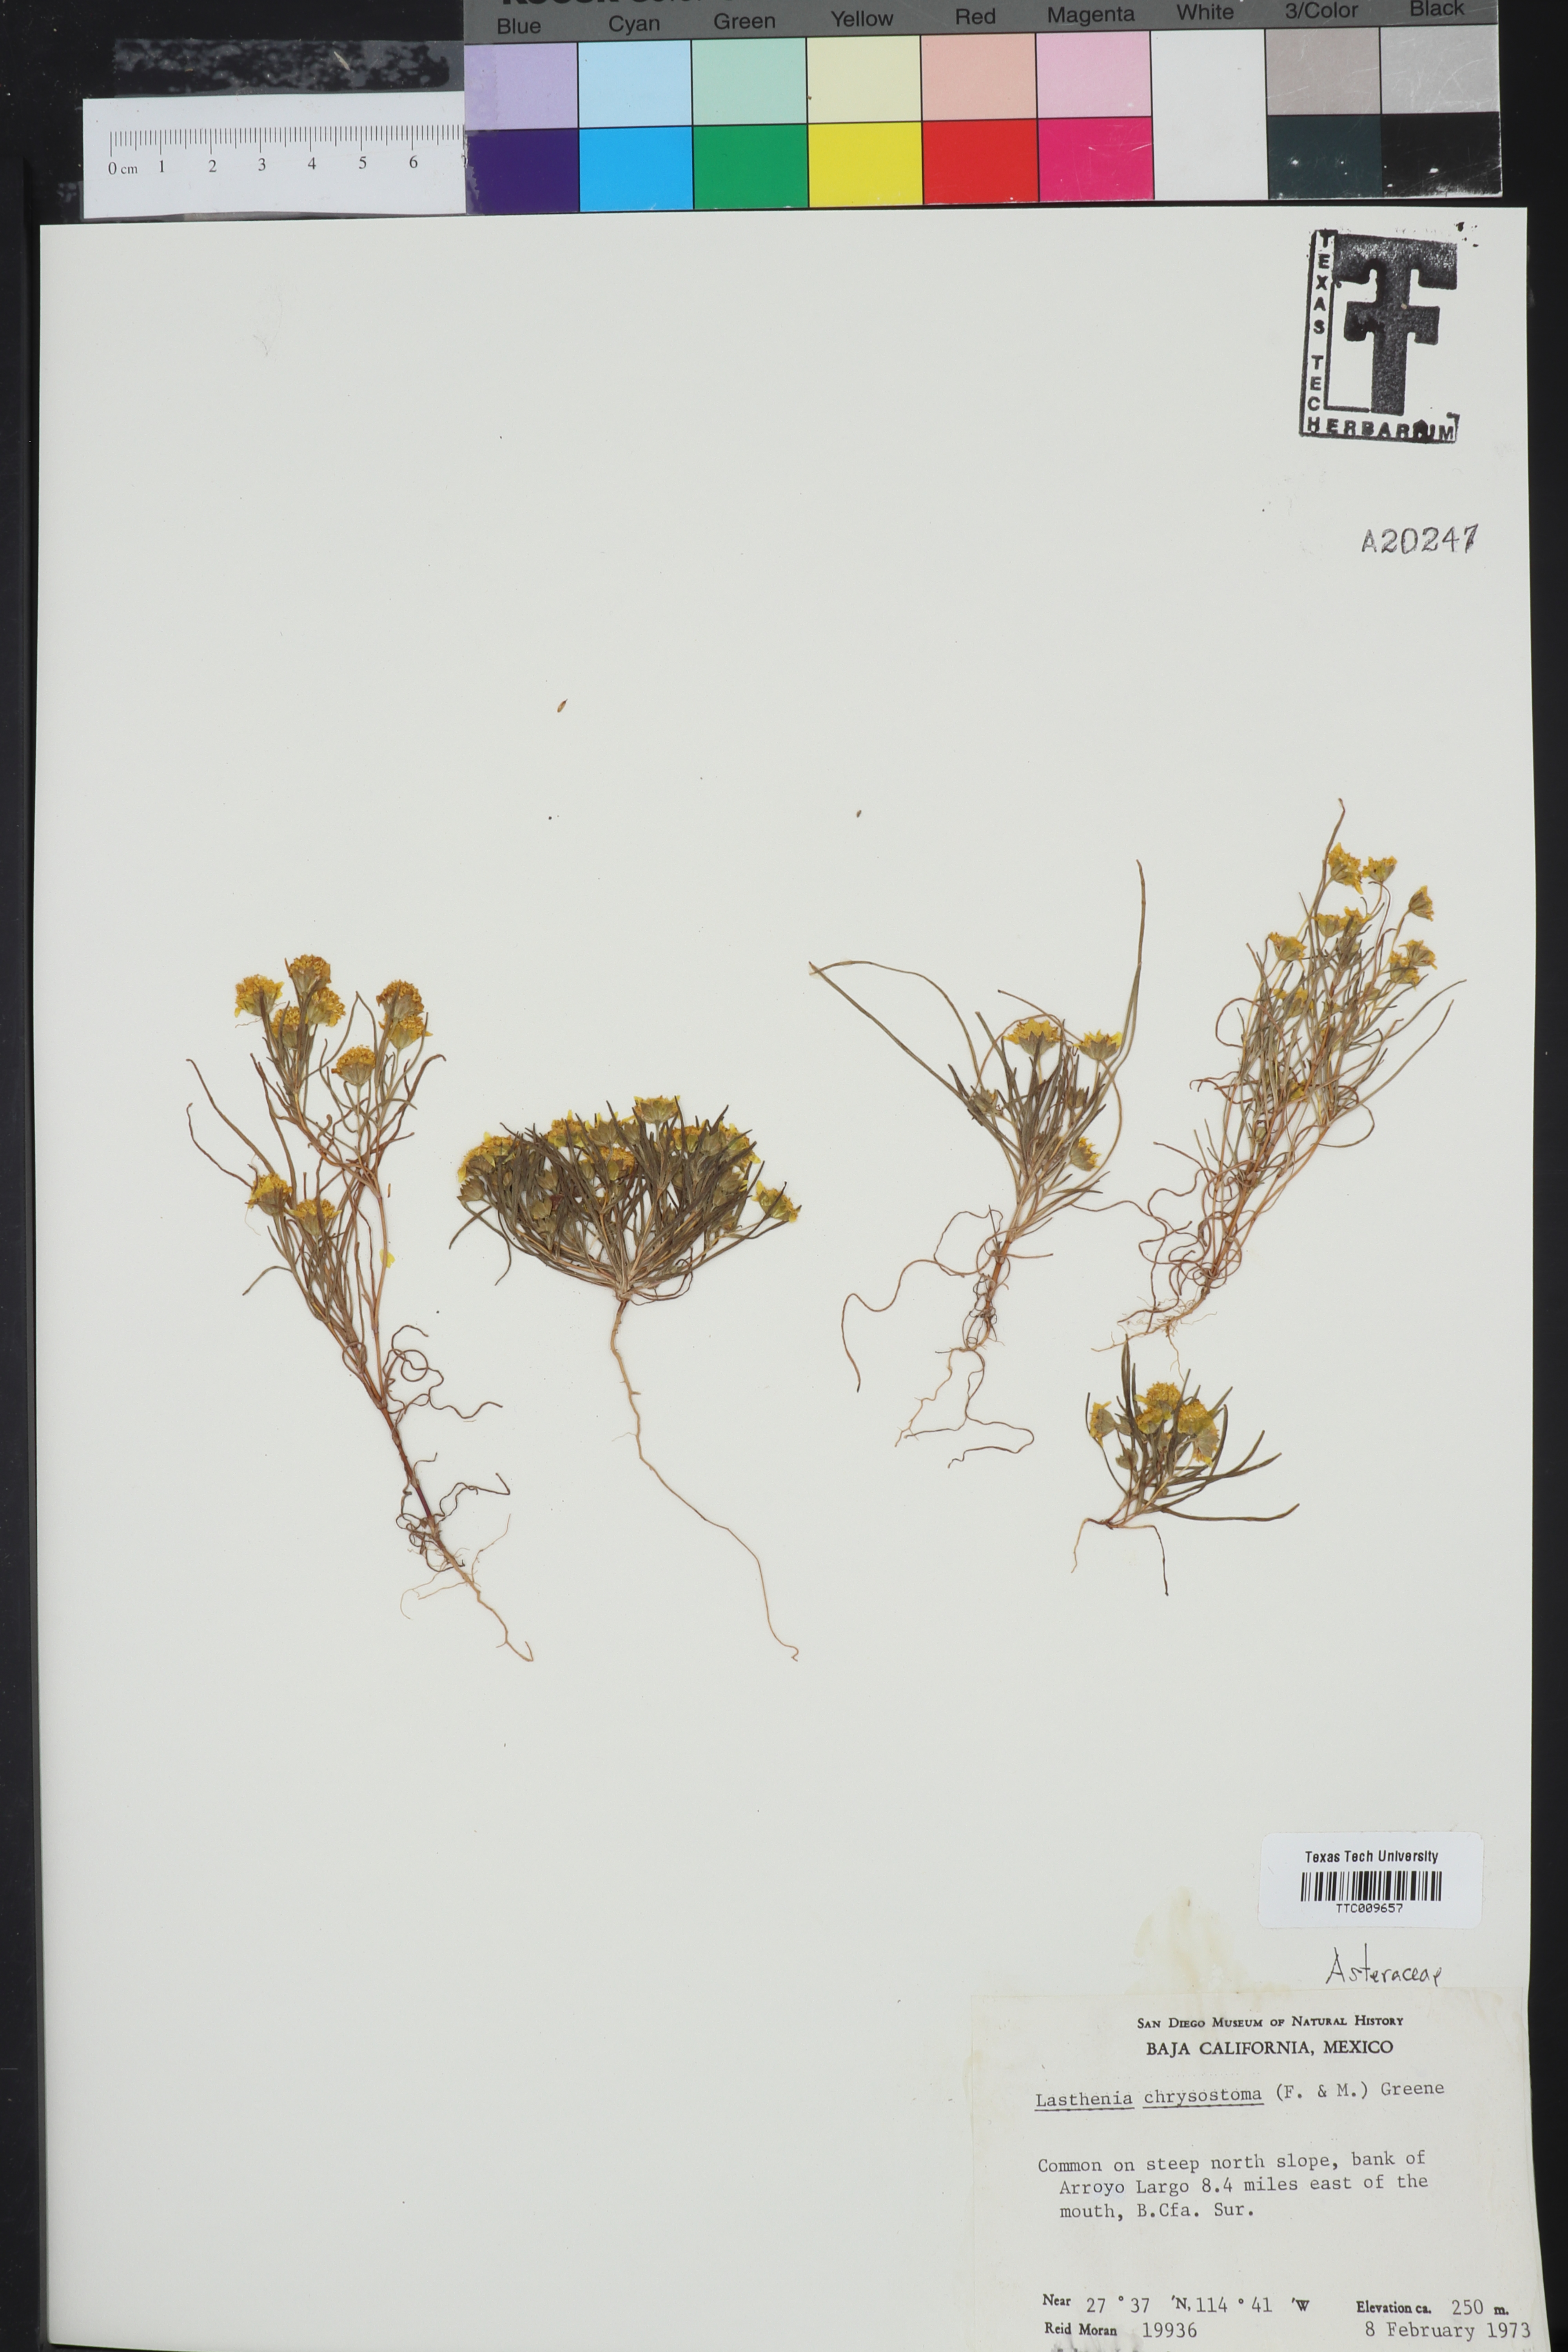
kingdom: Plantae
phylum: Tracheophyta
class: Magnoliopsida
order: Asterales
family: Asteraceae
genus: Lasthenia
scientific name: Lasthenia californica
